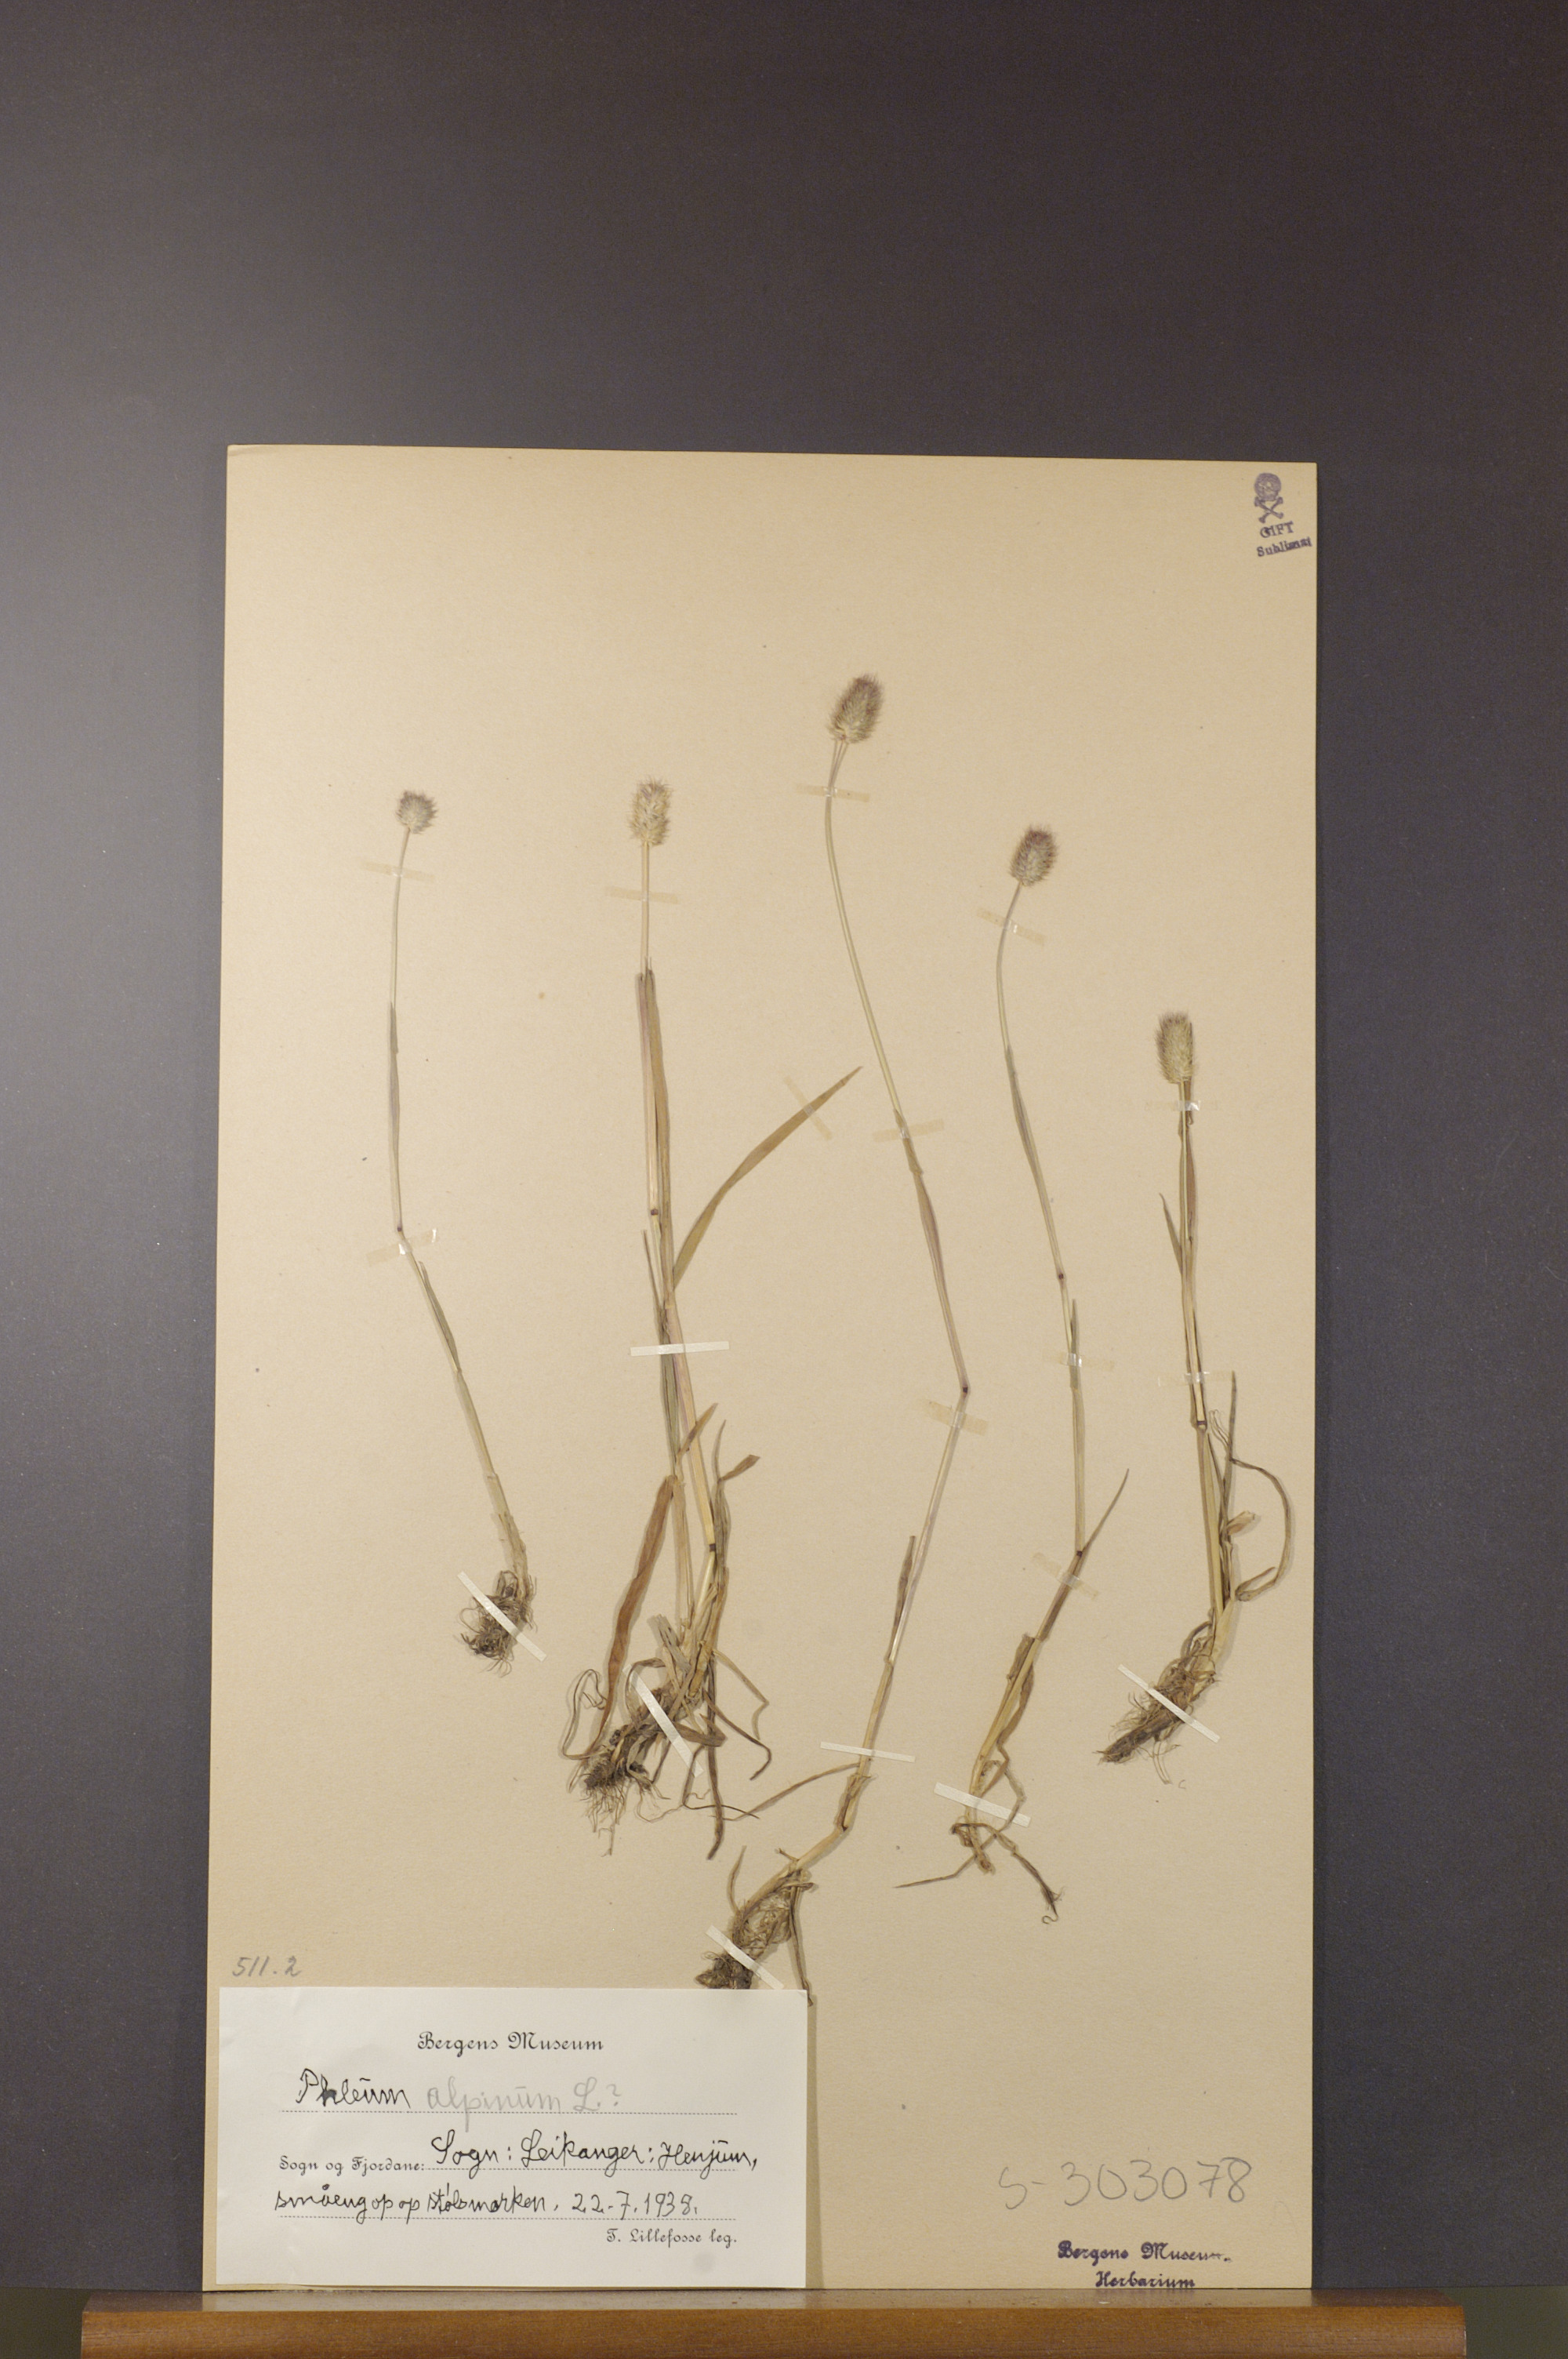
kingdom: Plantae
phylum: Tracheophyta
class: Liliopsida
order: Poales
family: Poaceae
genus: Phleum
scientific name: Phleum alpinum
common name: Alpine cat's-tail
